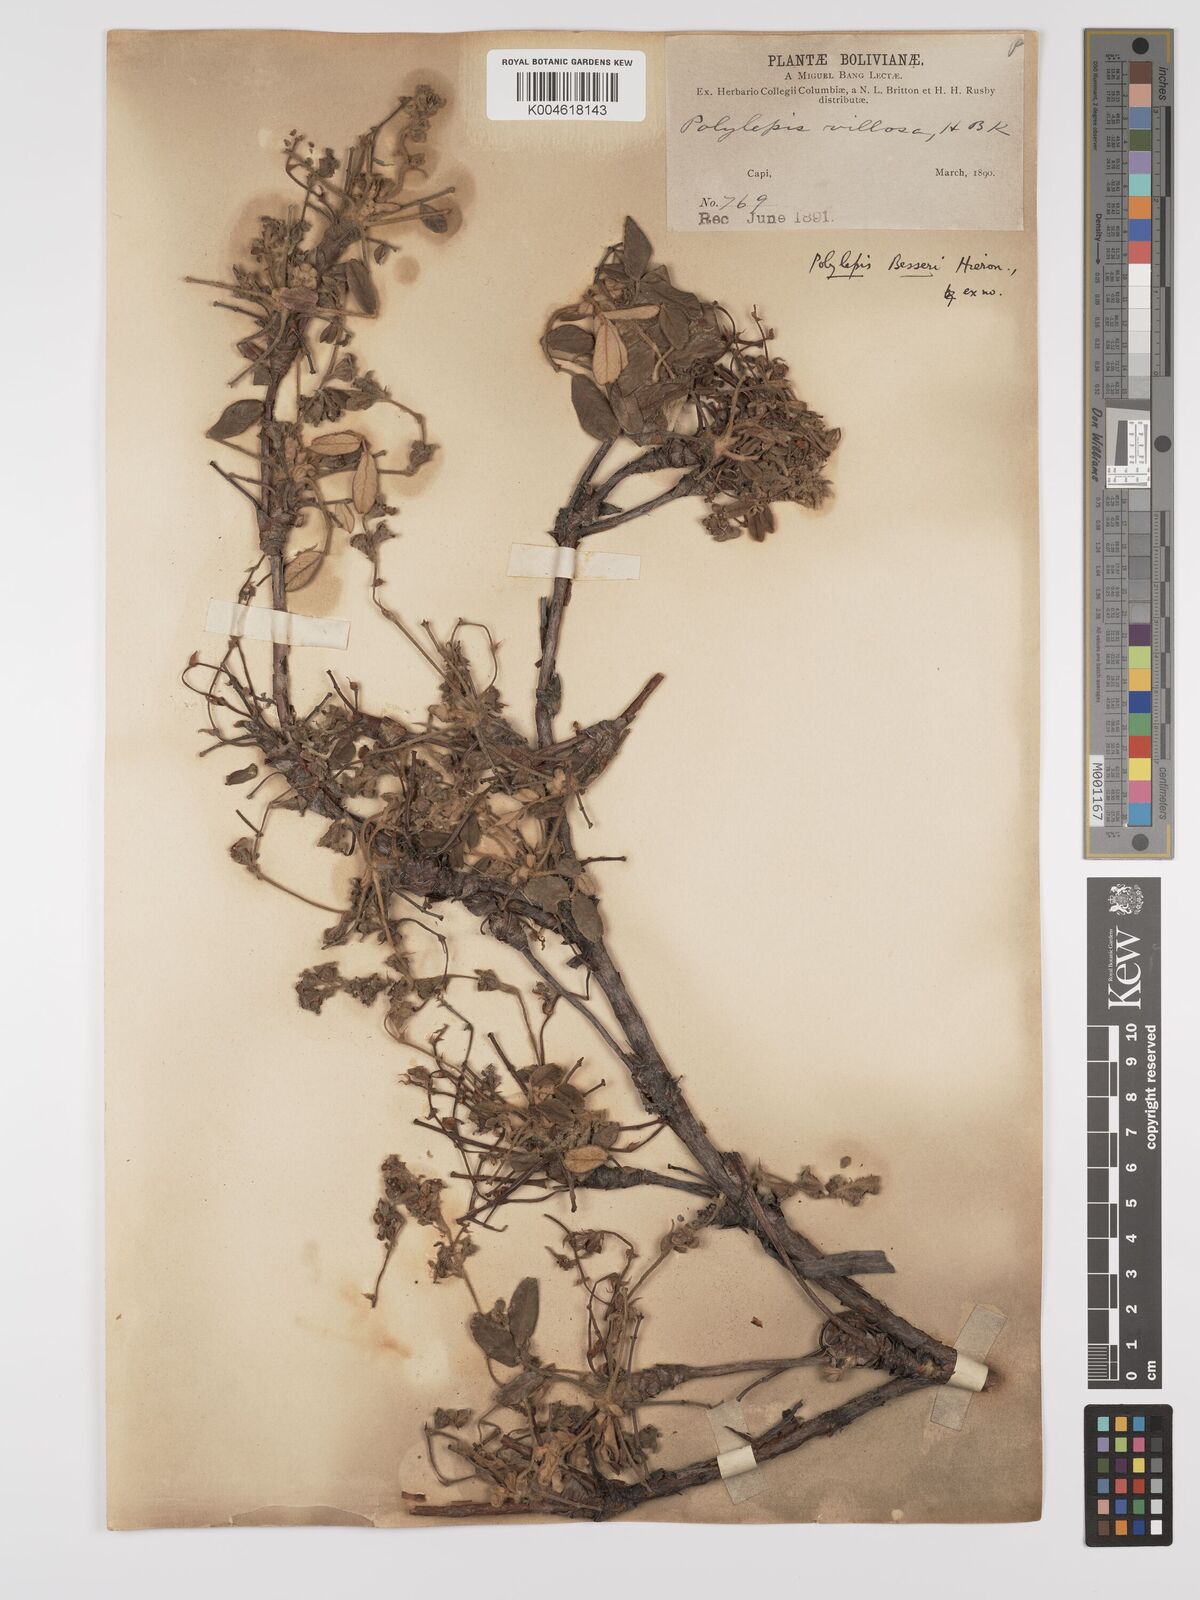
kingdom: Plantae
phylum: Tracheophyta
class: Magnoliopsida
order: Rosales
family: Rosaceae
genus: Polylepis
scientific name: Polylepis
